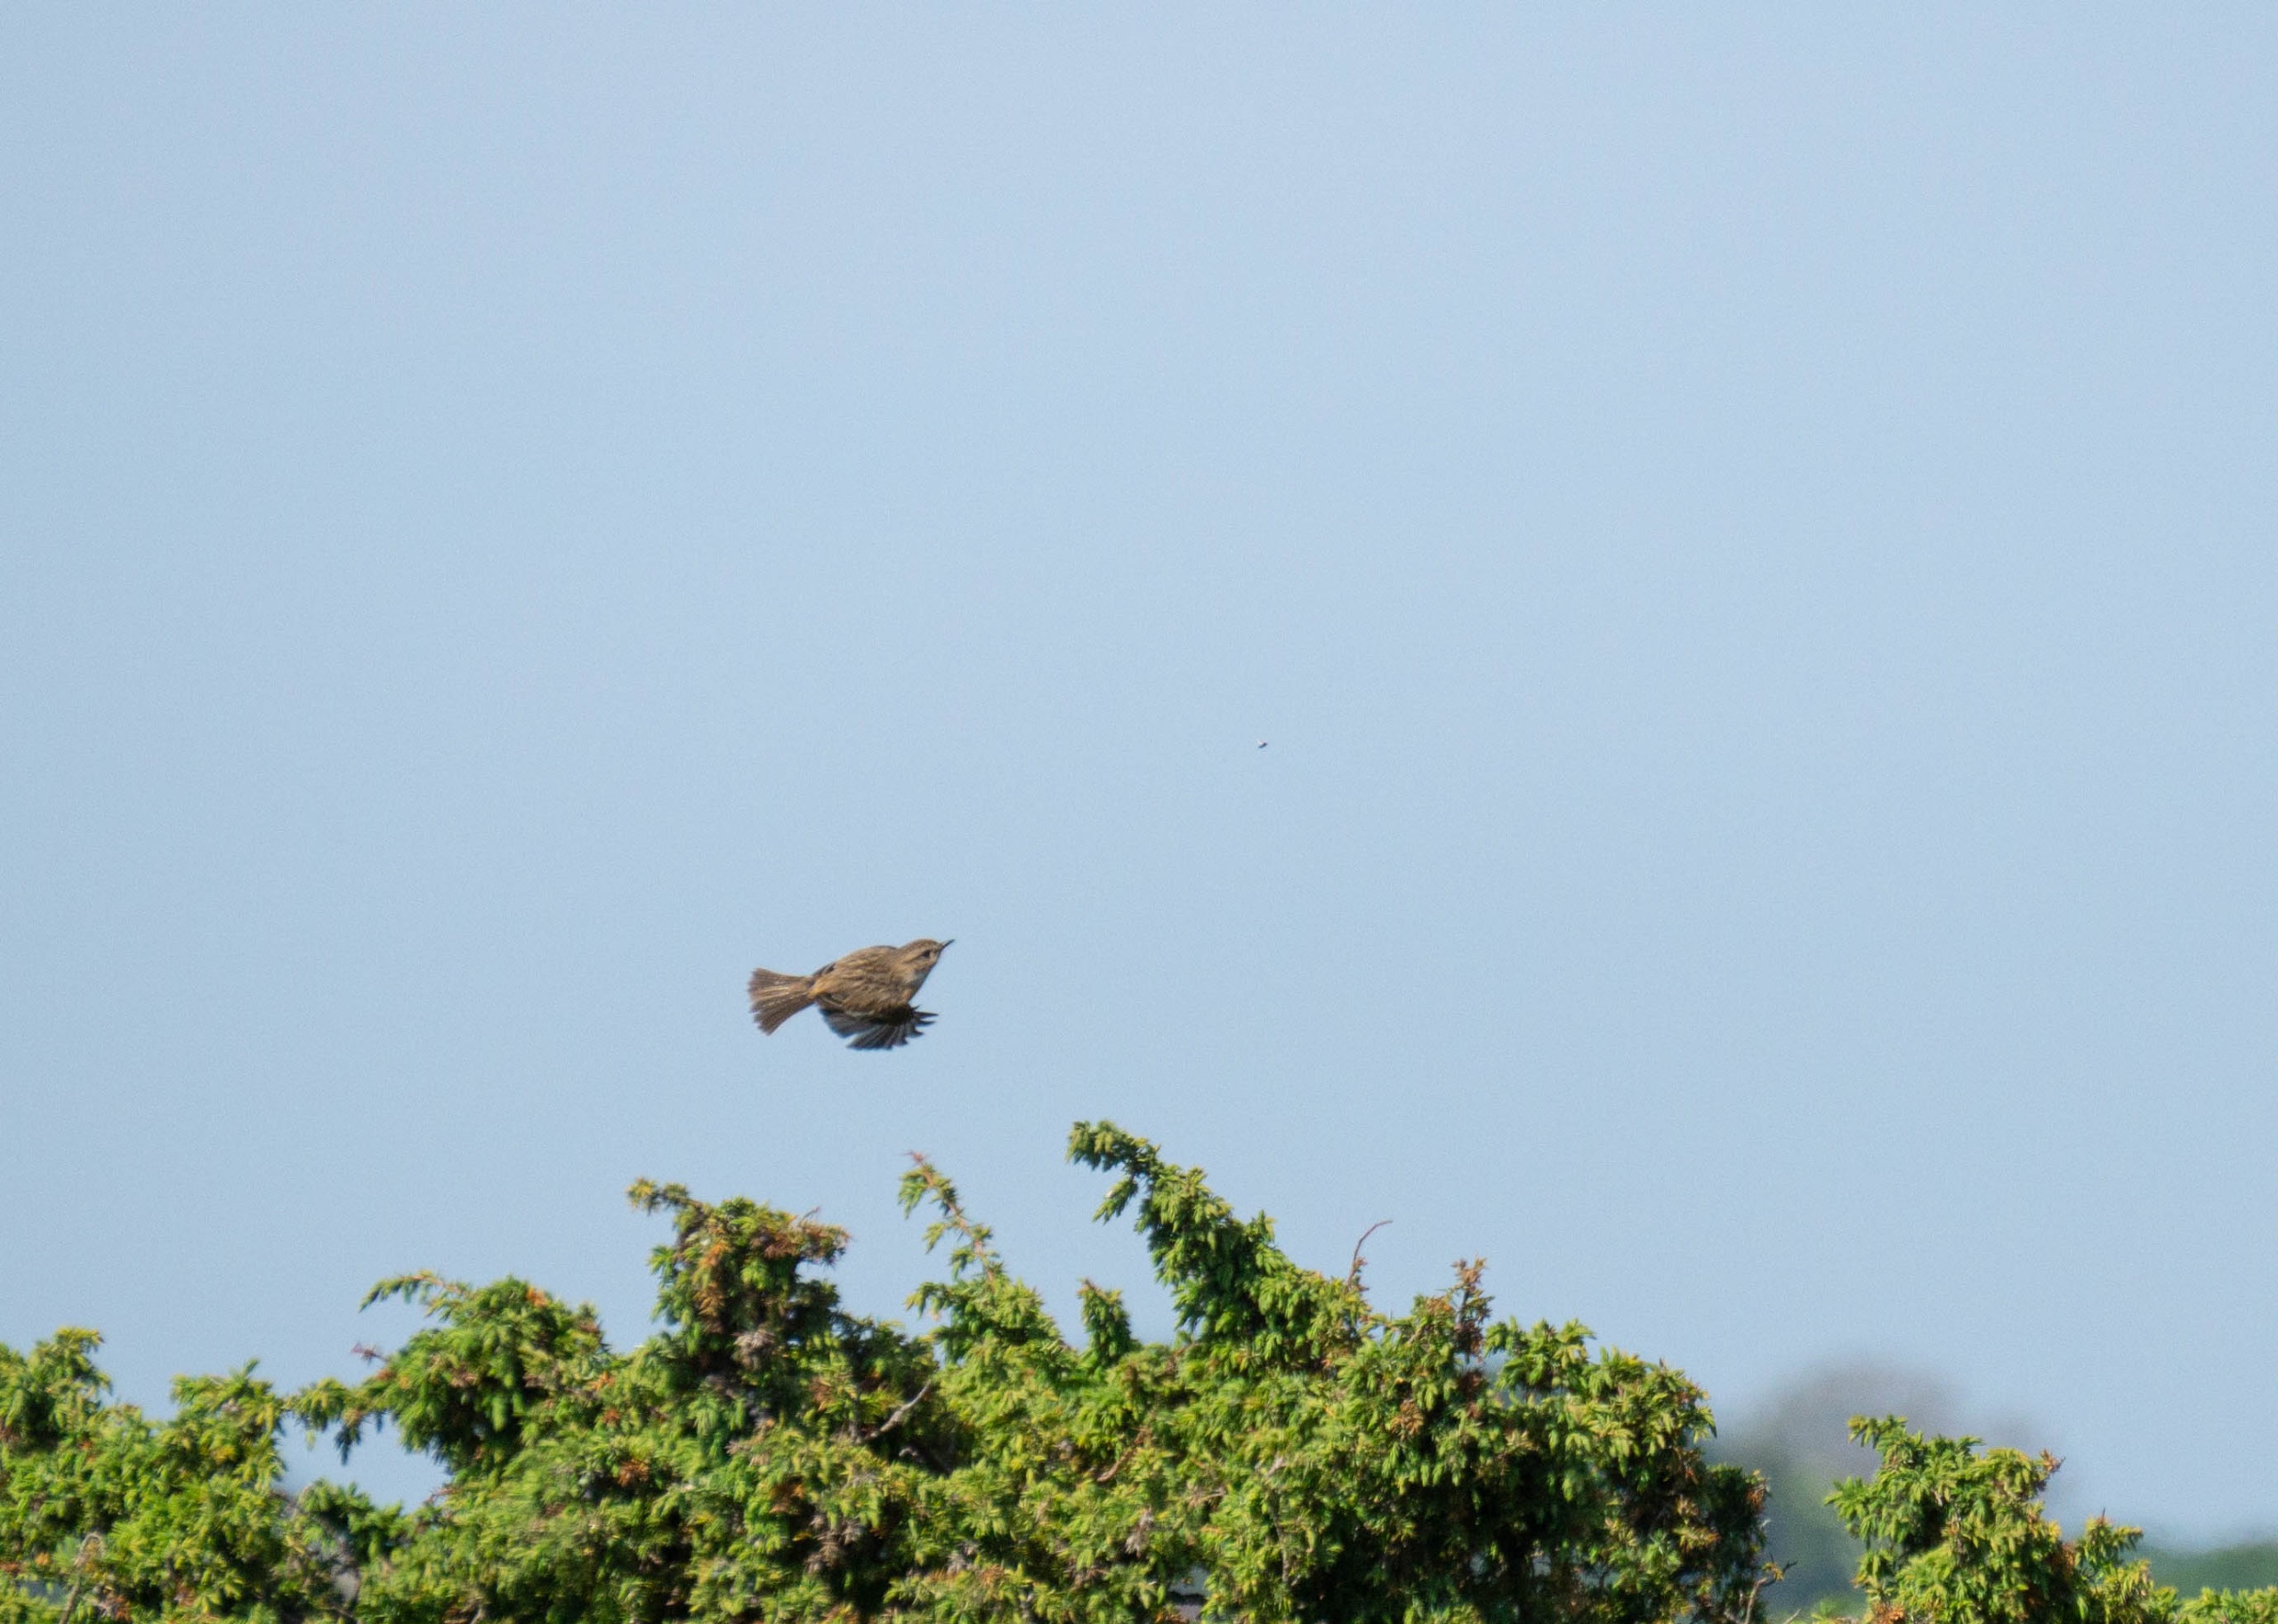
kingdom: Animalia
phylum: Chordata
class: Aves
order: Passeriformes
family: Muscicapidae
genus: Saxicola
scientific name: Saxicola rubicola
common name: Sortstrubet bynkefugl
